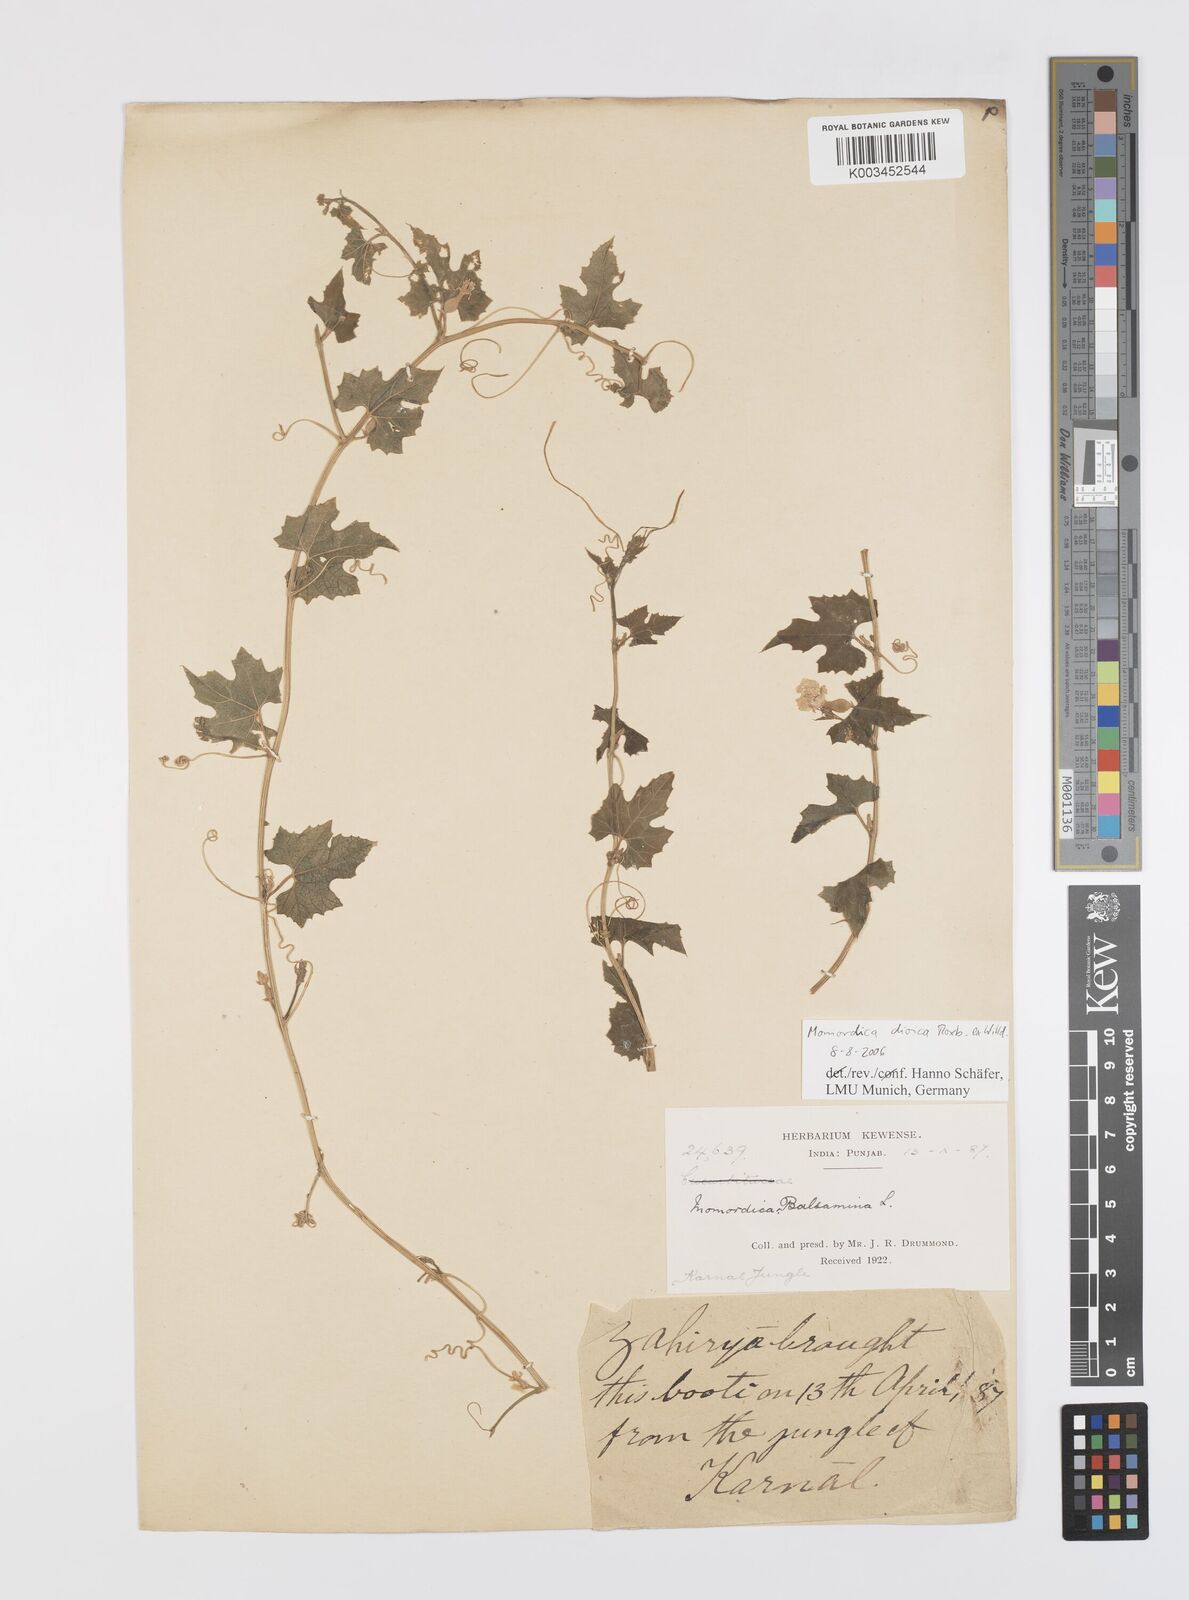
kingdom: Plantae
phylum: Tracheophyta
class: Magnoliopsida
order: Cucurbitales
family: Cucurbitaceae
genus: Momordica
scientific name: Momordica dioica
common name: Spine gourd
